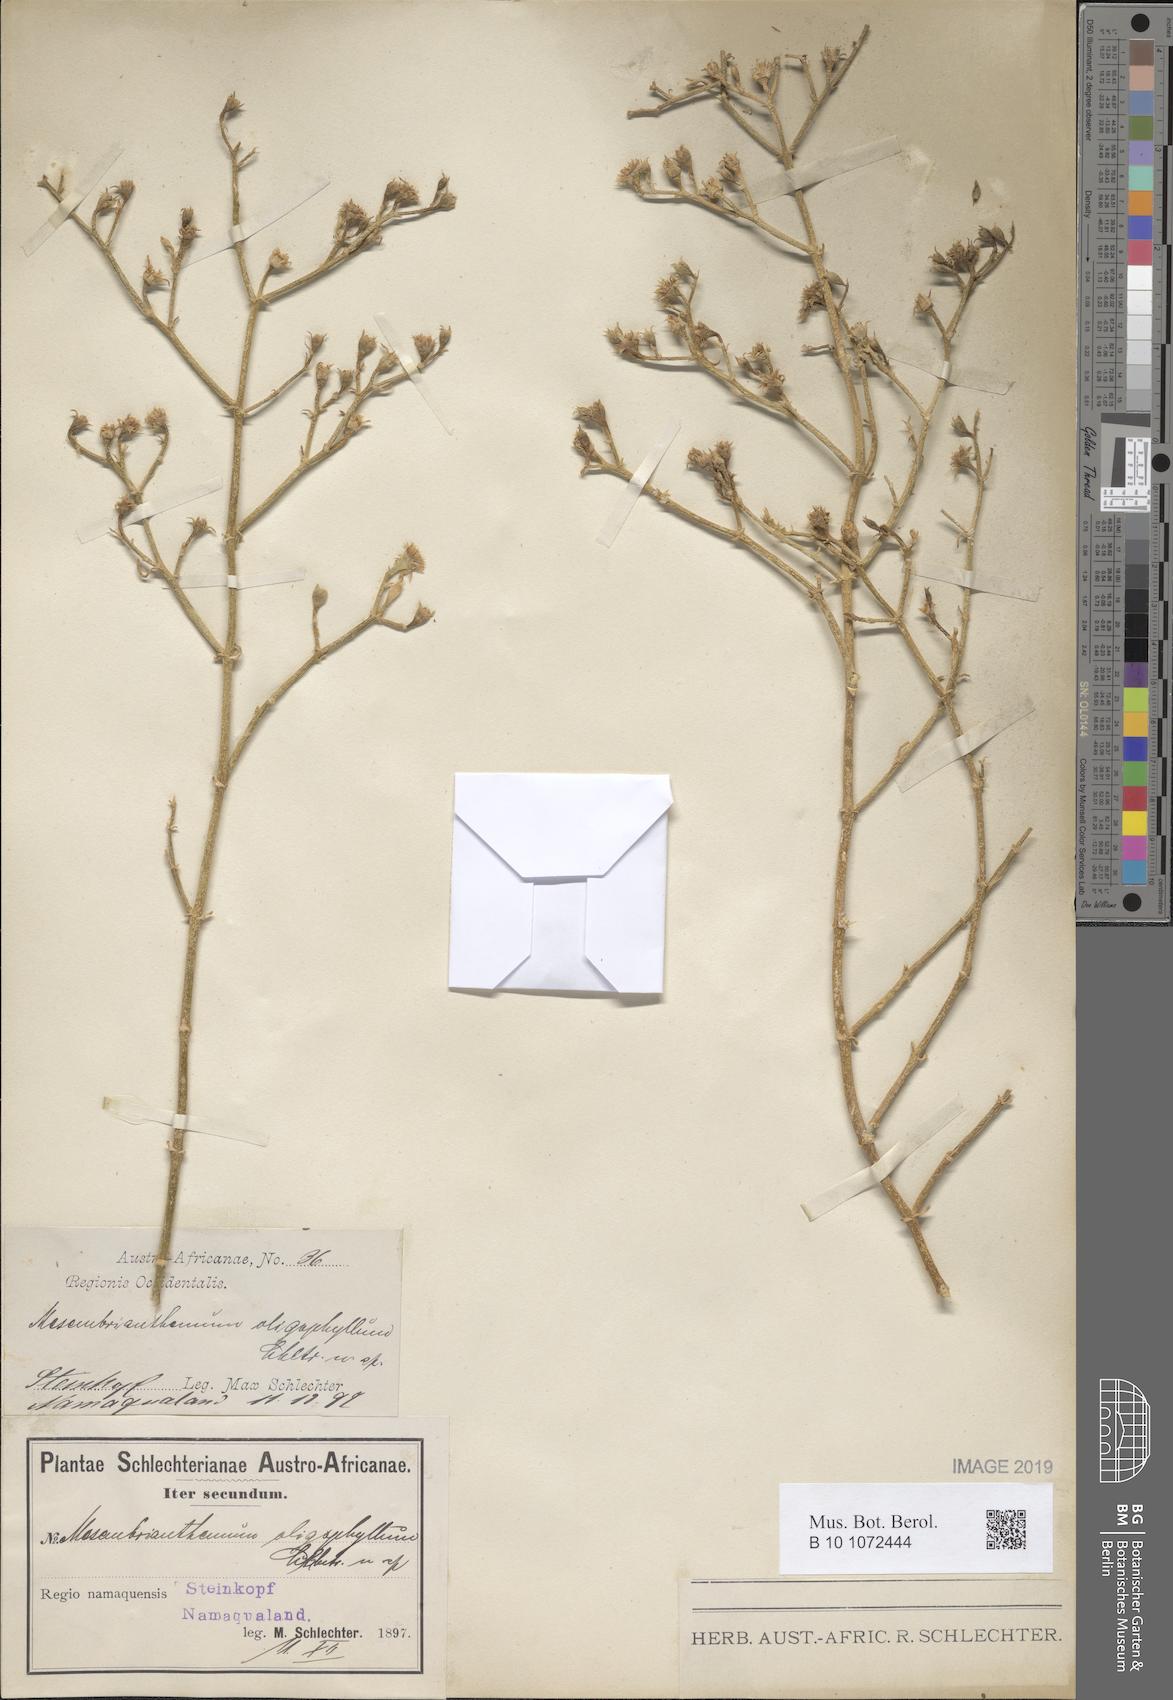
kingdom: Plantae
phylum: Tracheophyta
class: Magnoliopsida
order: Caryophyllales
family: Aizoaceae
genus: Mesembryanthemum
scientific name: Mesembryanthemum junceum
